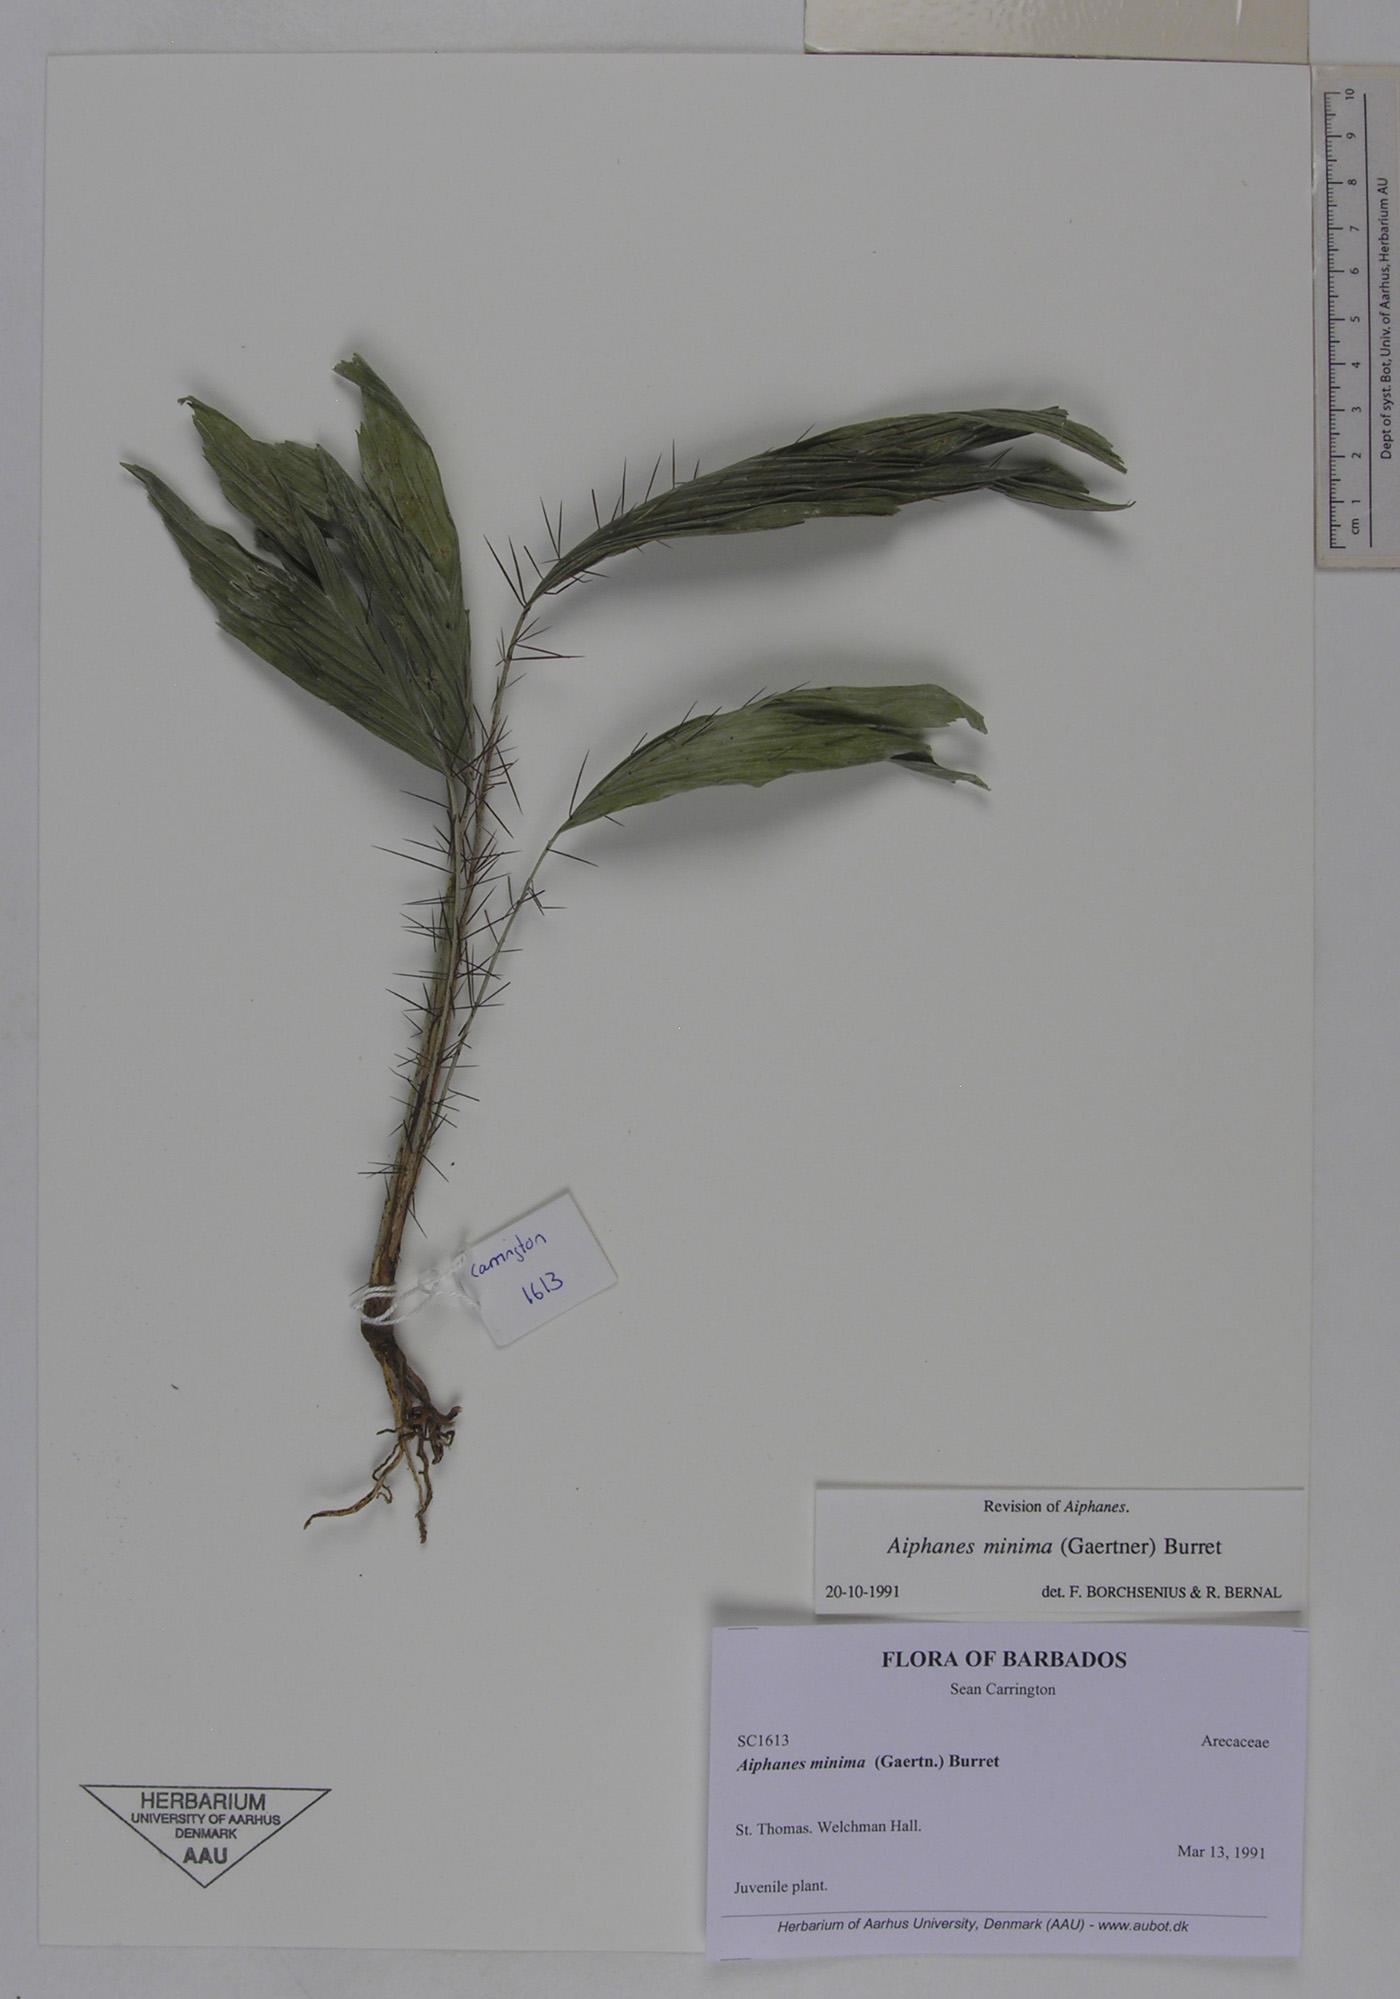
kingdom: Plantae
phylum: Tracheophyta
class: Liliopsida
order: Arecales
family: Arecaceae
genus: Aiphanes
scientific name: Aiphanes minima
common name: Grigri
